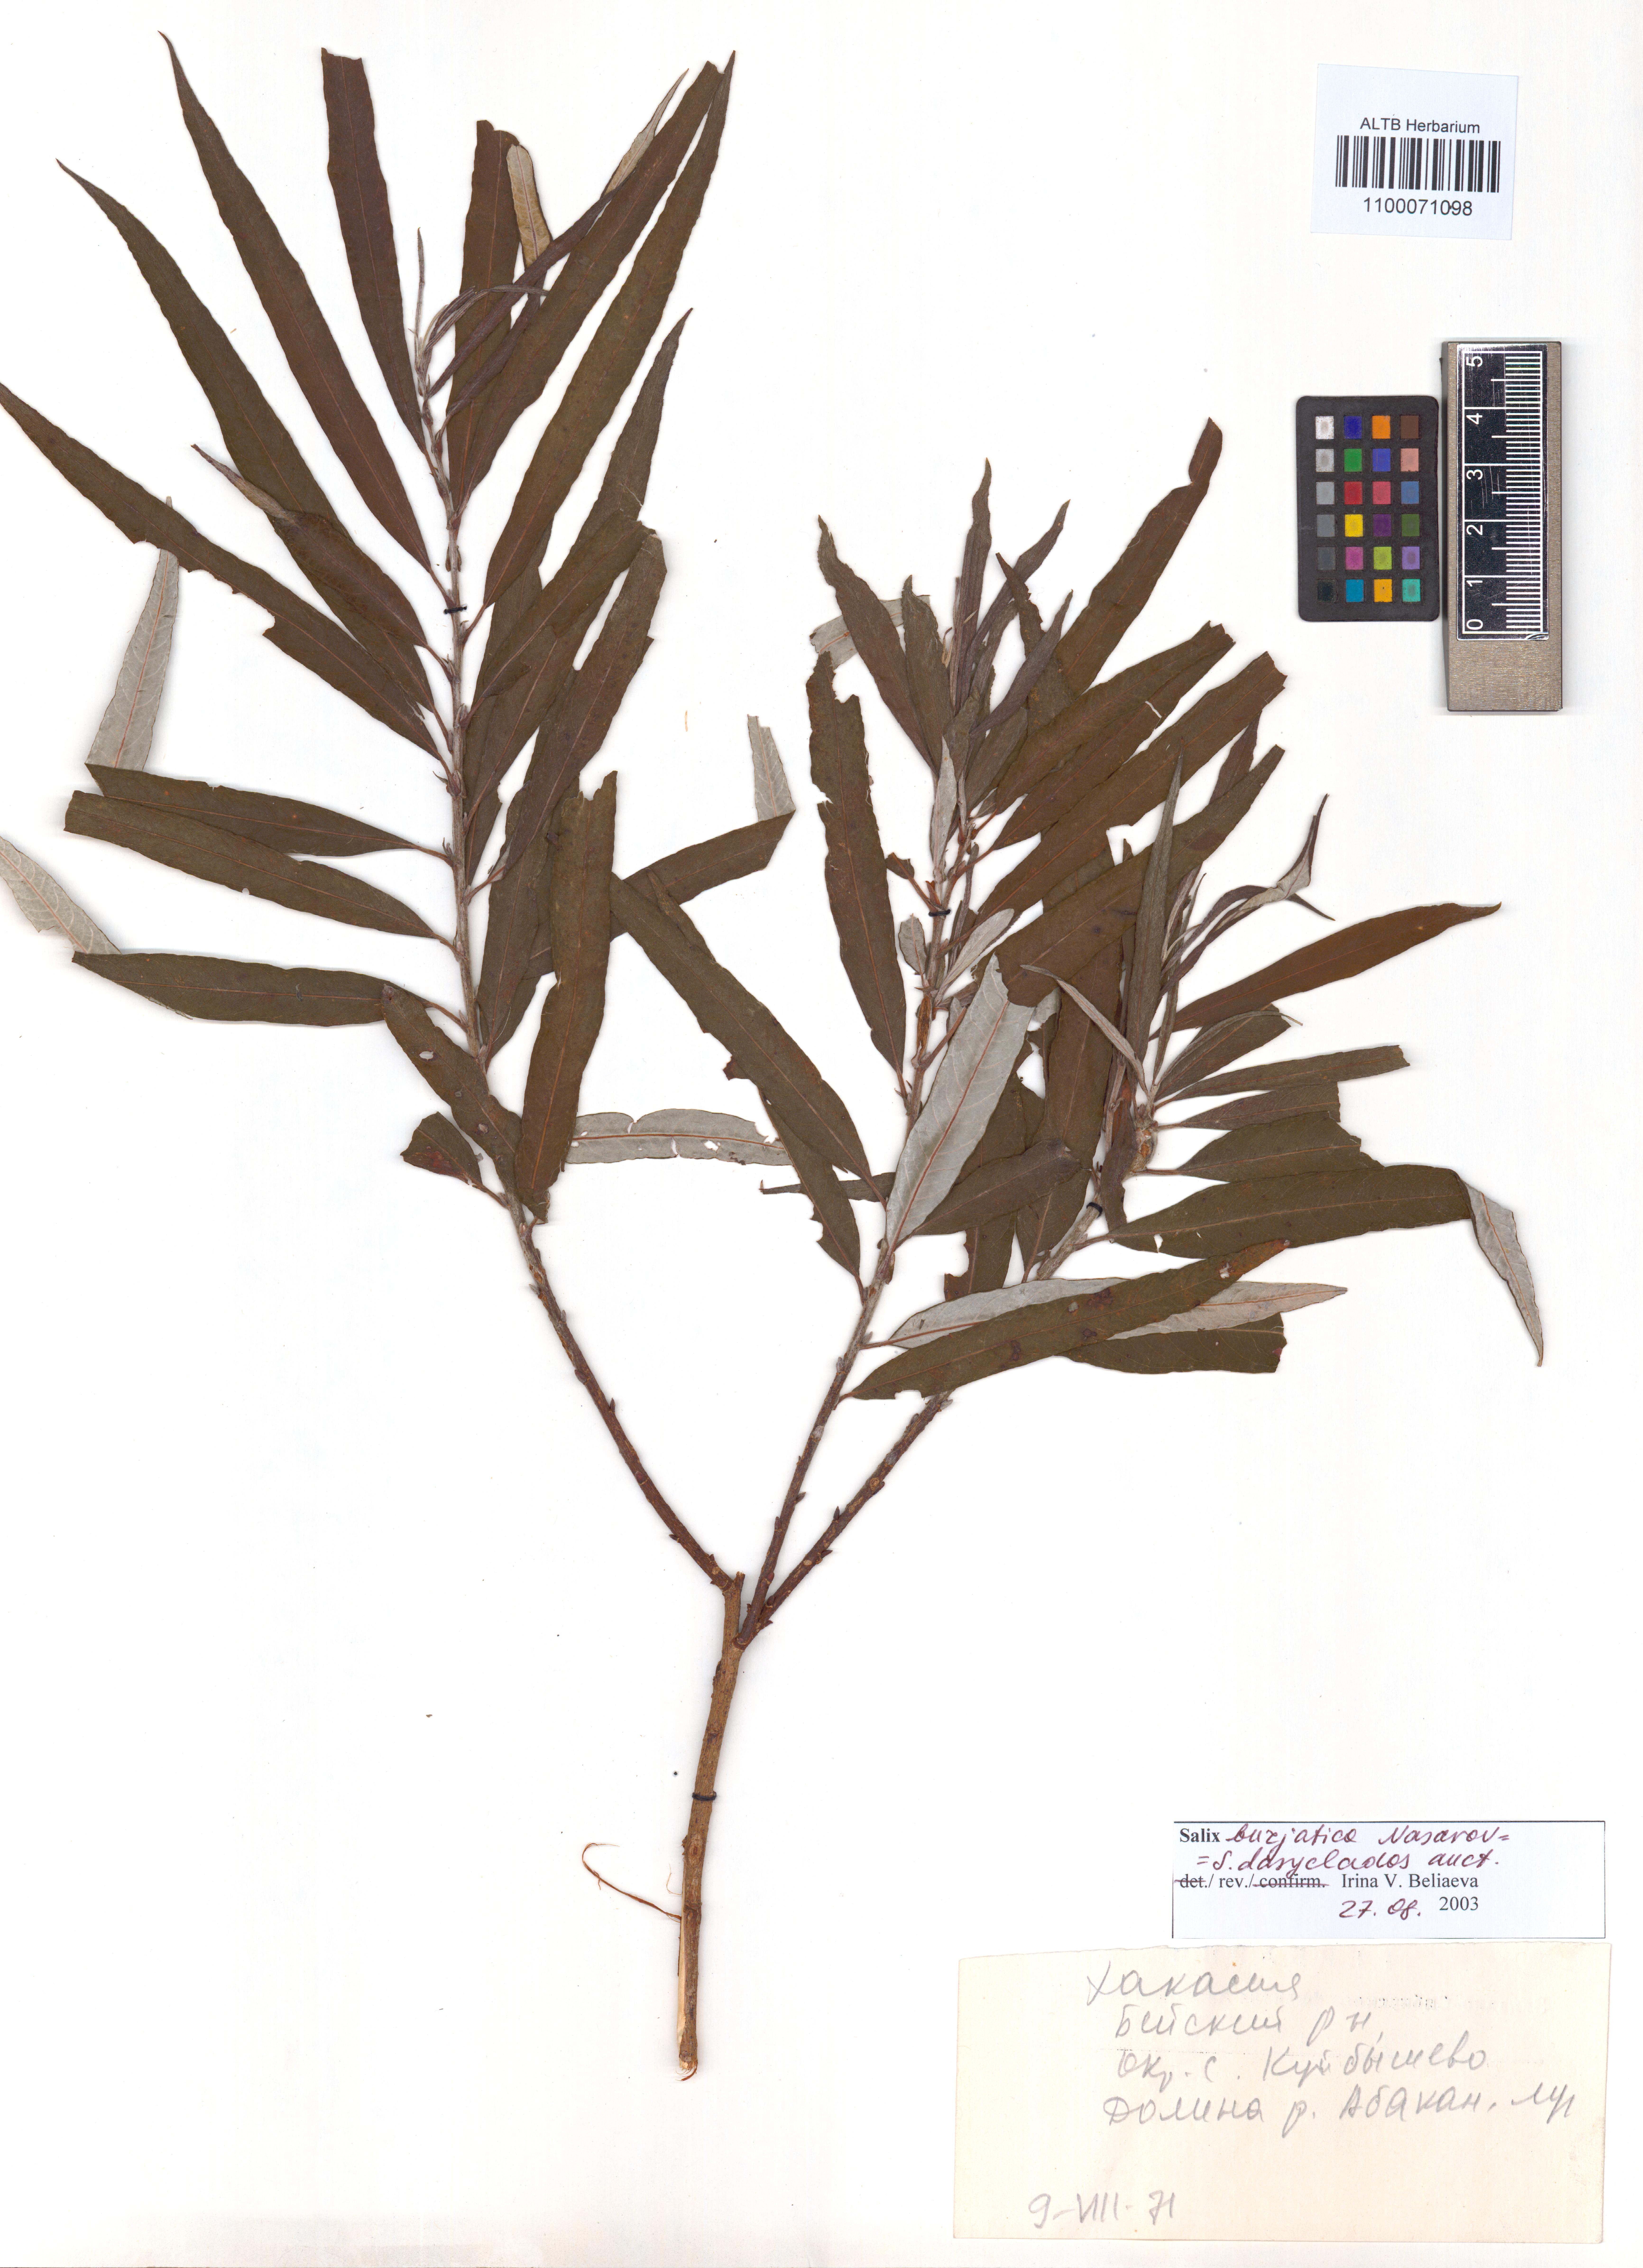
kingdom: Plantae
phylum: Tracheophyta
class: Magnoliopsida
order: Malpighiales
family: Salicaceae
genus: Salix
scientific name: Salix gmelinii
